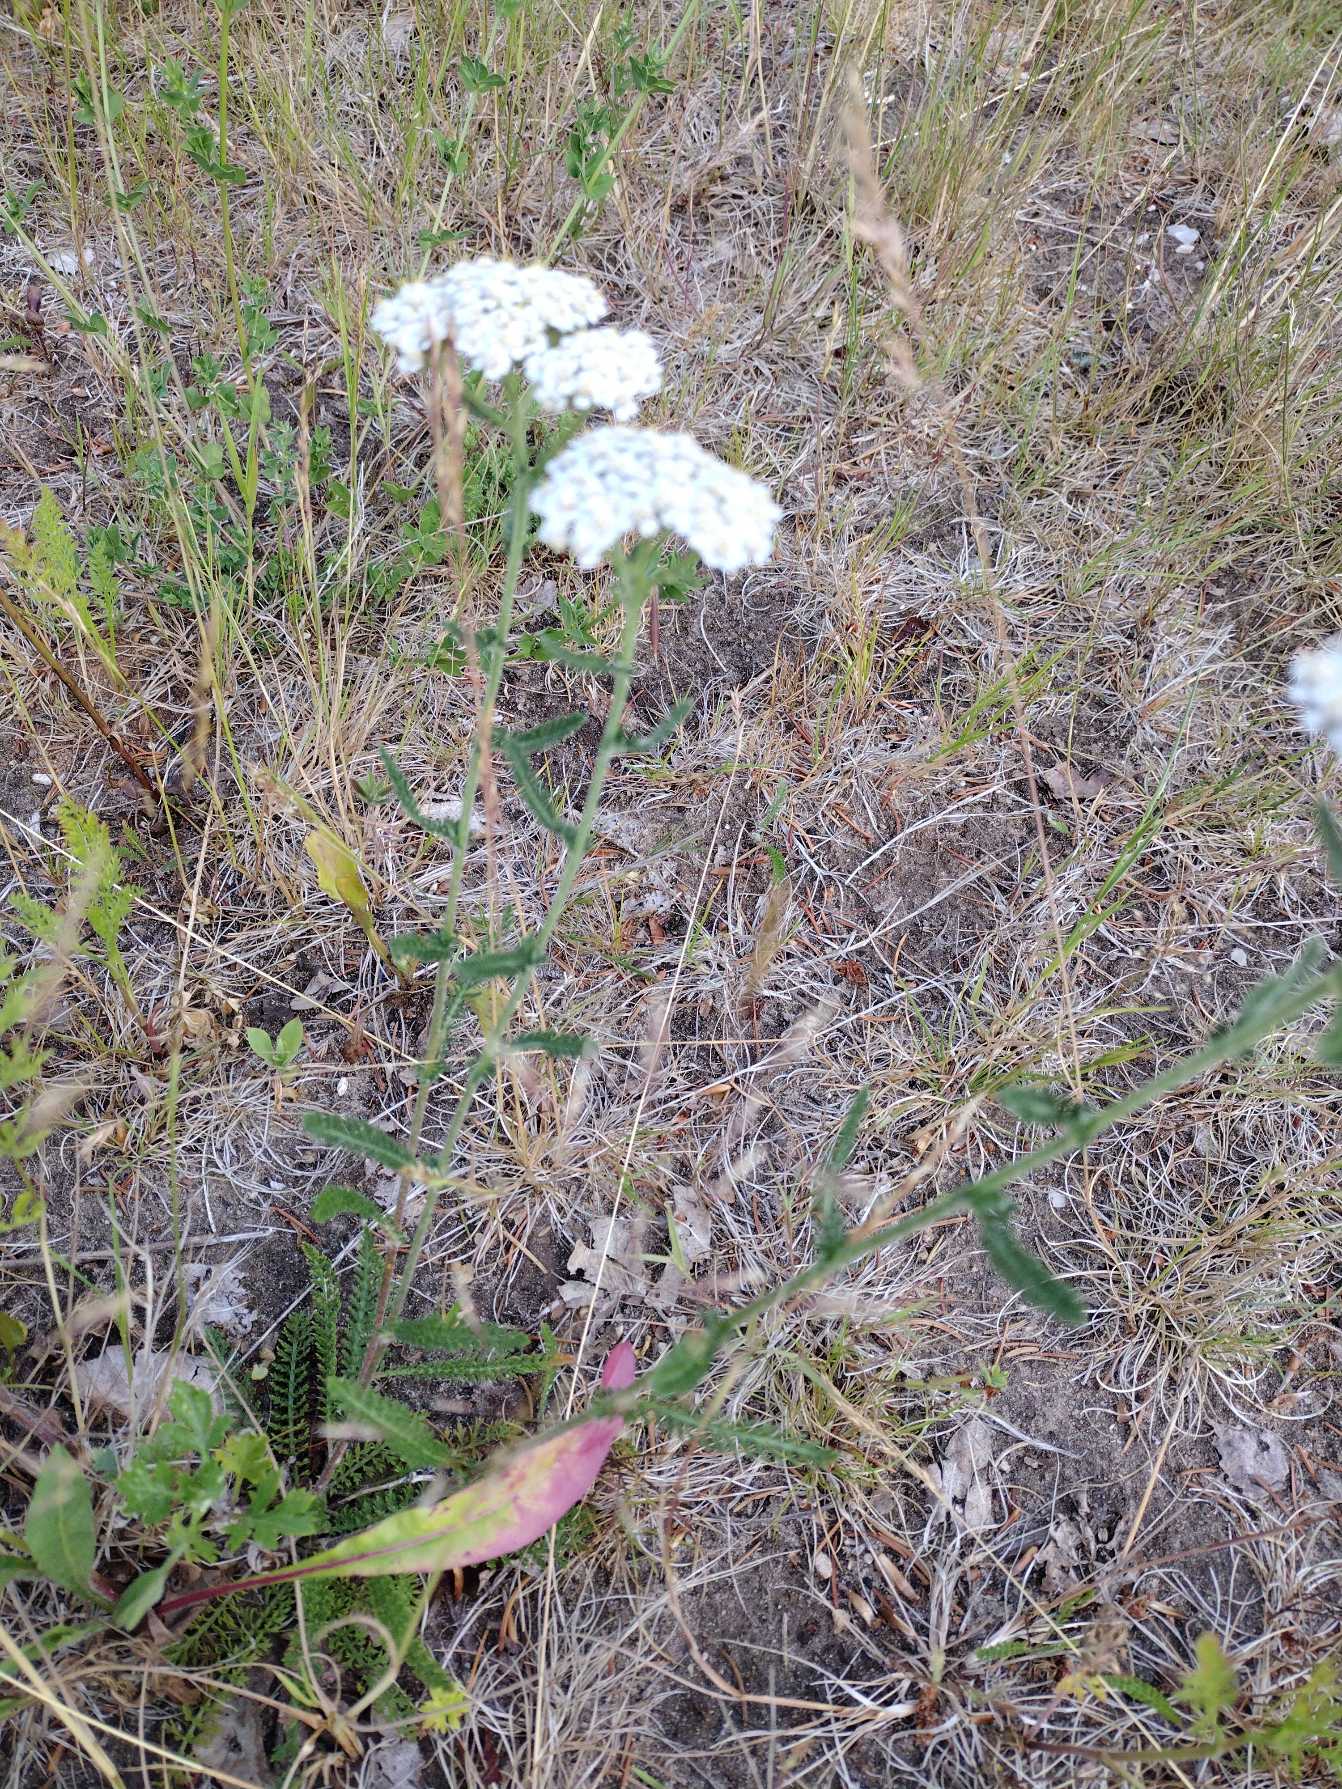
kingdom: Plantae
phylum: Tracheophyta
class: Magnoliopsida
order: Asterales
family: Asteraceae
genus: Achillea
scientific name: Achillea millefolium
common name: Almindelig røllike
